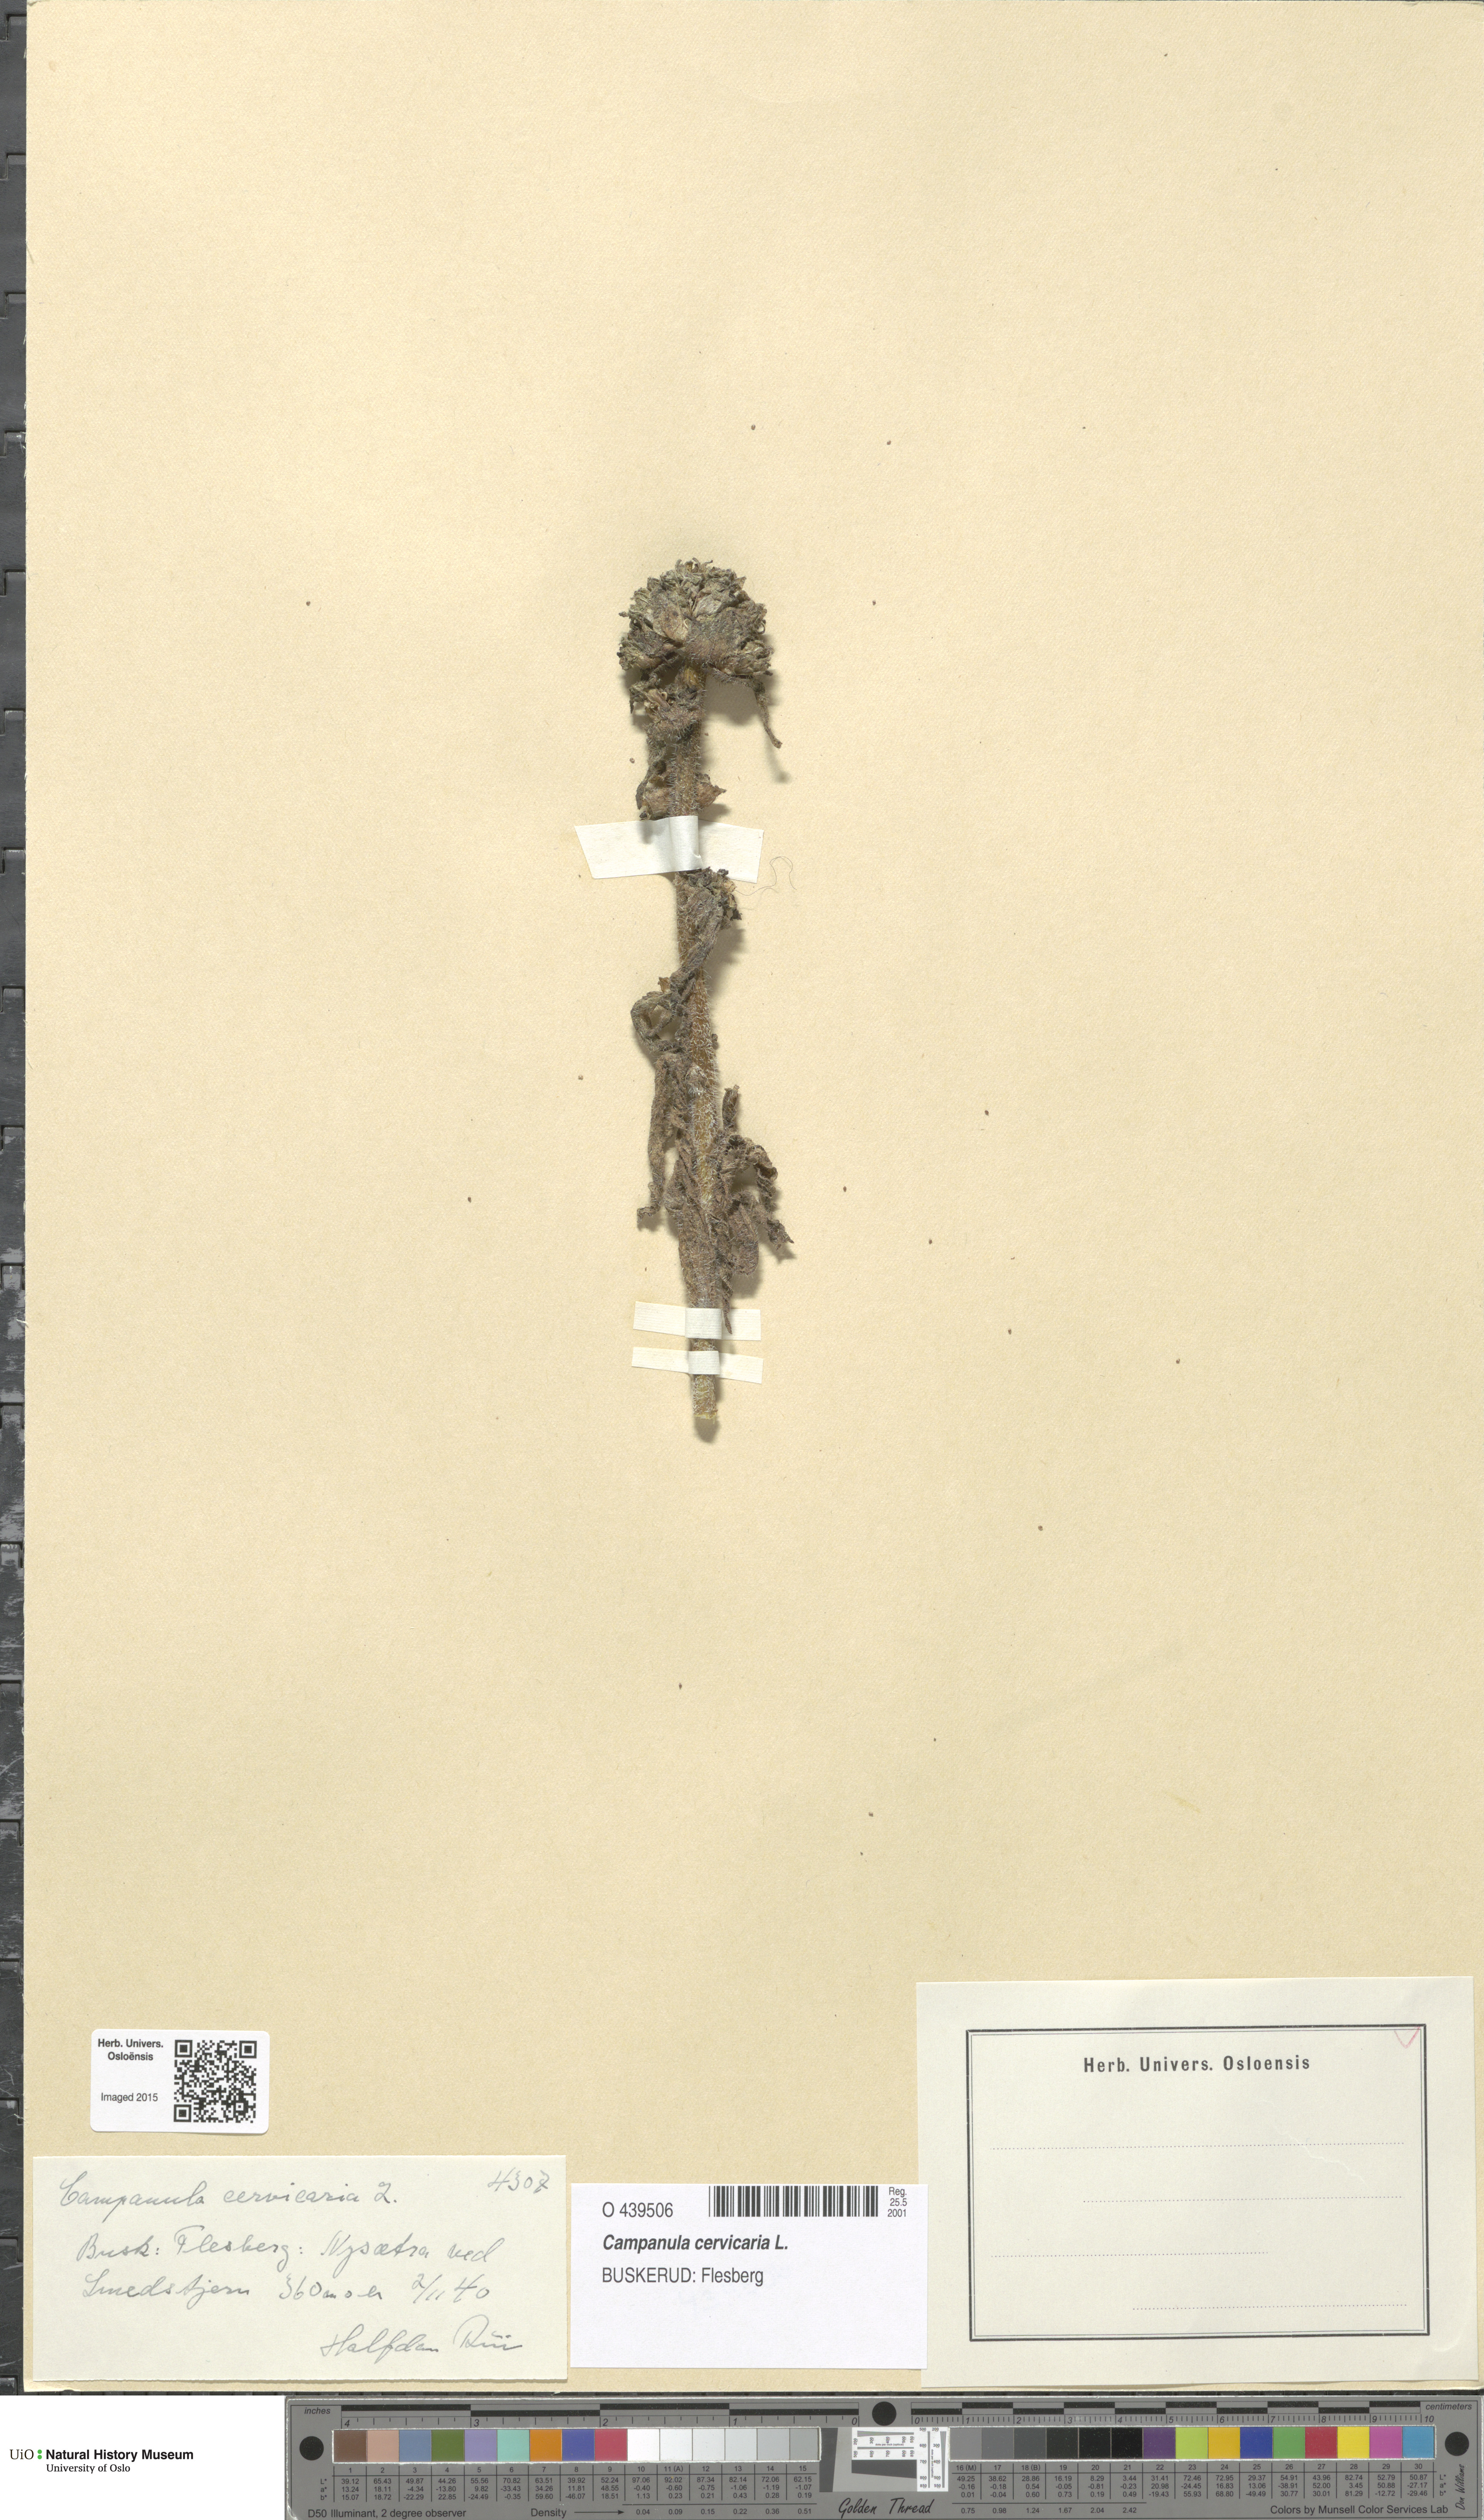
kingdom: Plantae
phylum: Tracheophyta
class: Magnoliopsida
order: Asterales
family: Campanulaceae
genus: Campanula
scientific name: Campanula cervicaria
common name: Bristly bellflower
